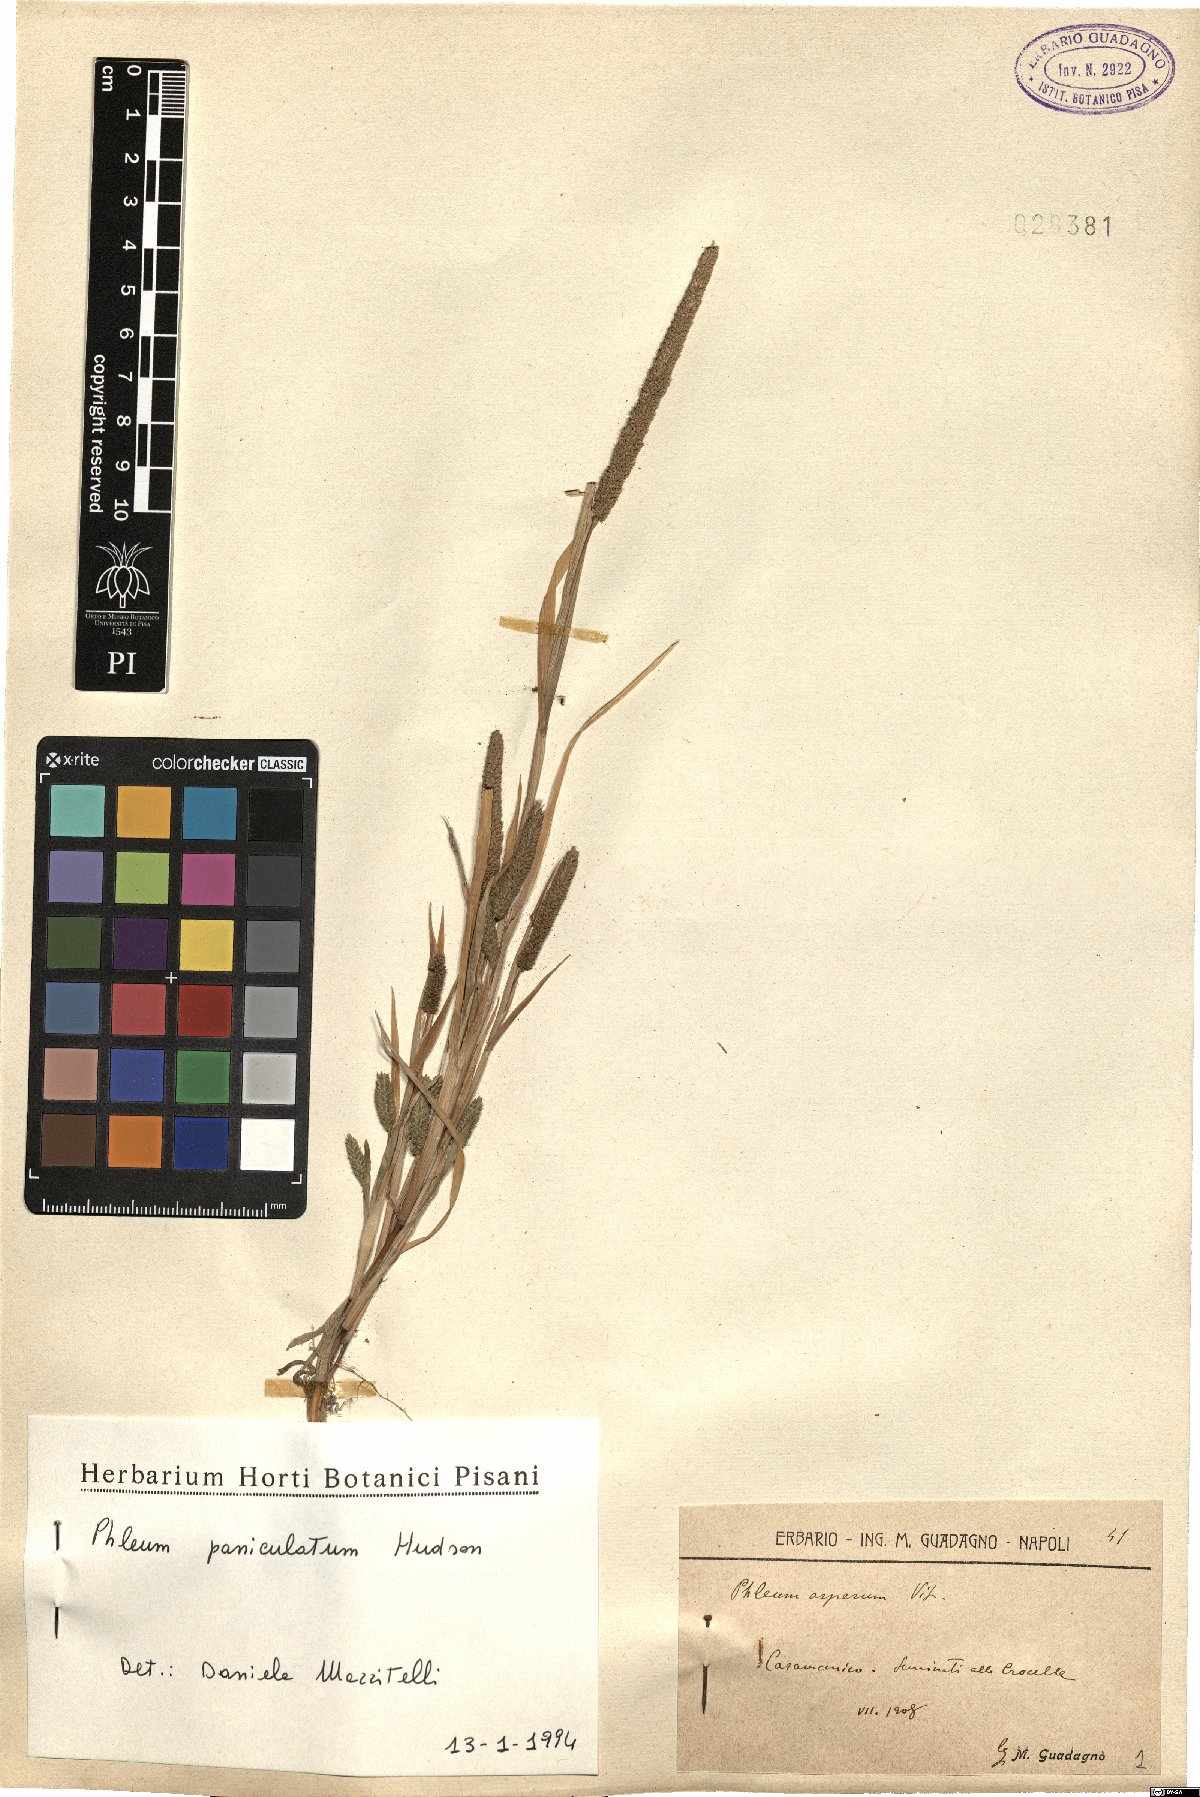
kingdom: Plantae
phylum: Tracheophyta
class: Liliopsida
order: Poales
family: Poaceae
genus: Phleum
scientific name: Phleum paniculatum
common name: British timothy
